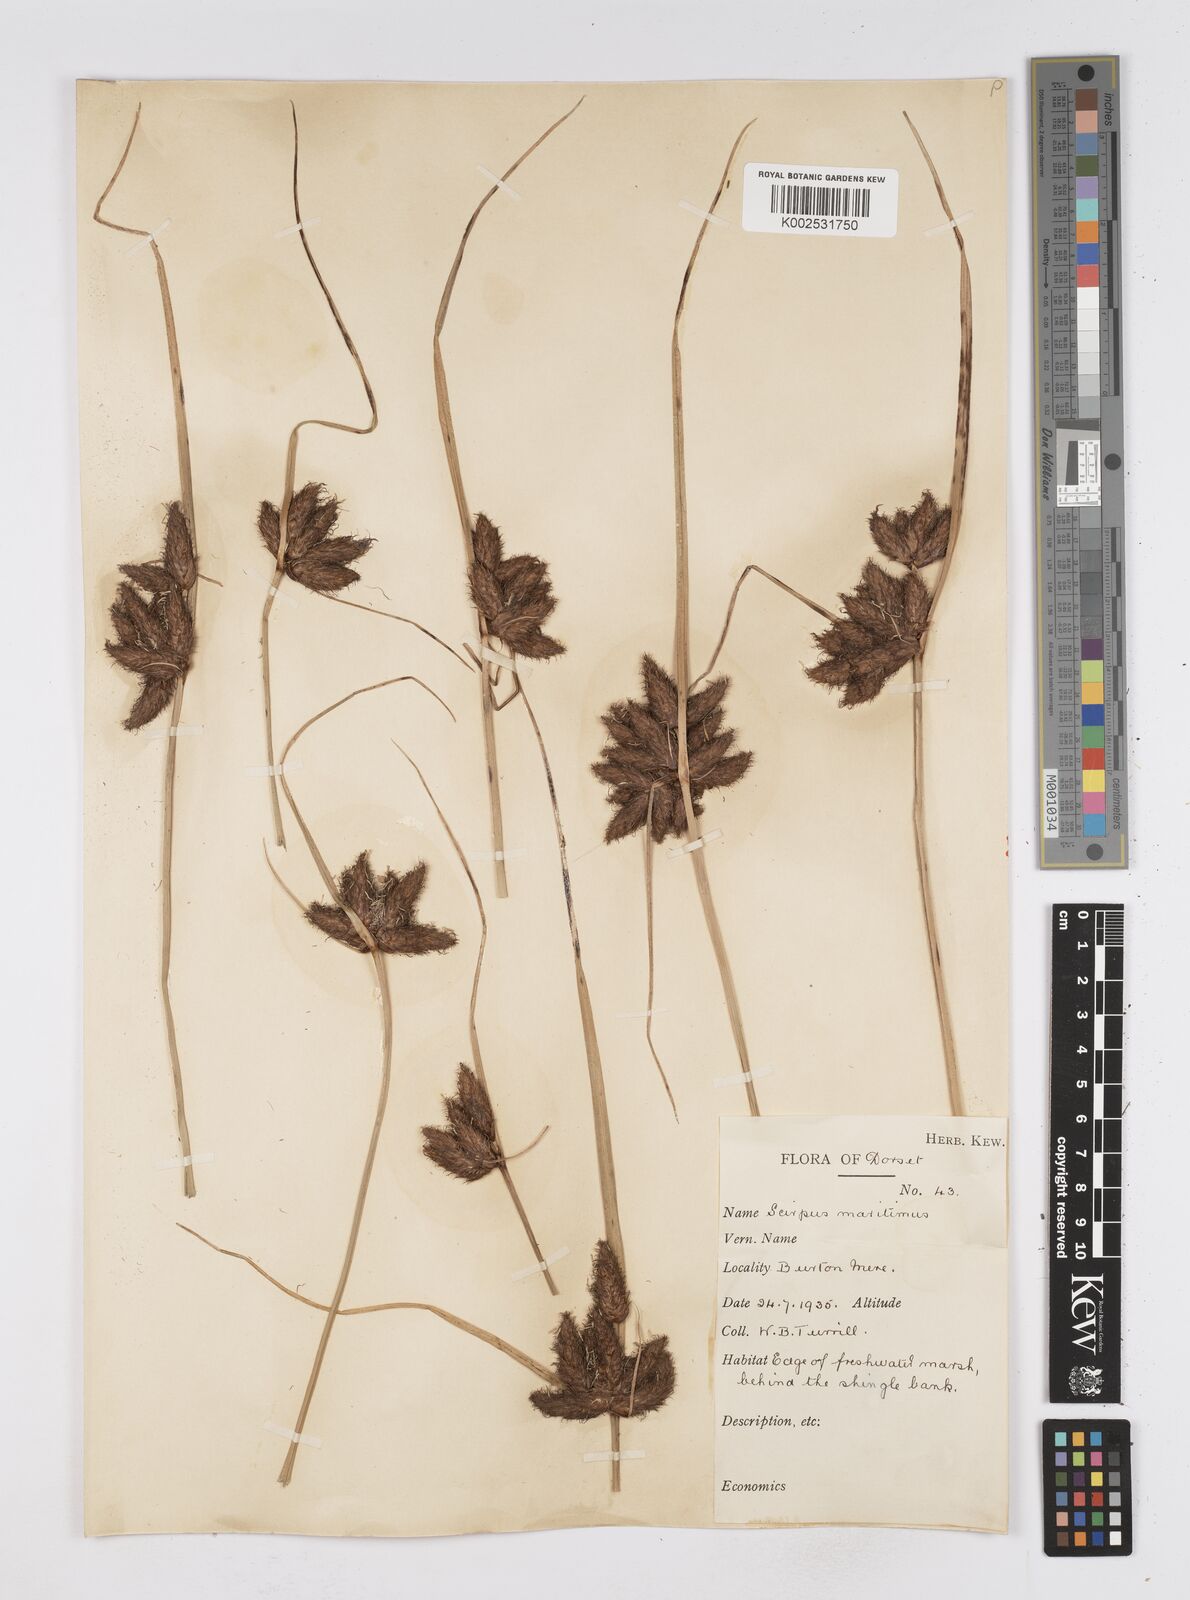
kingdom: Plantae
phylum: Tracheophyta
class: Liliopsida
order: Poales
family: Cyperaceae
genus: Bolboschoenus
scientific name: Bolboschoenus maritimus
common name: Sea club-rush
